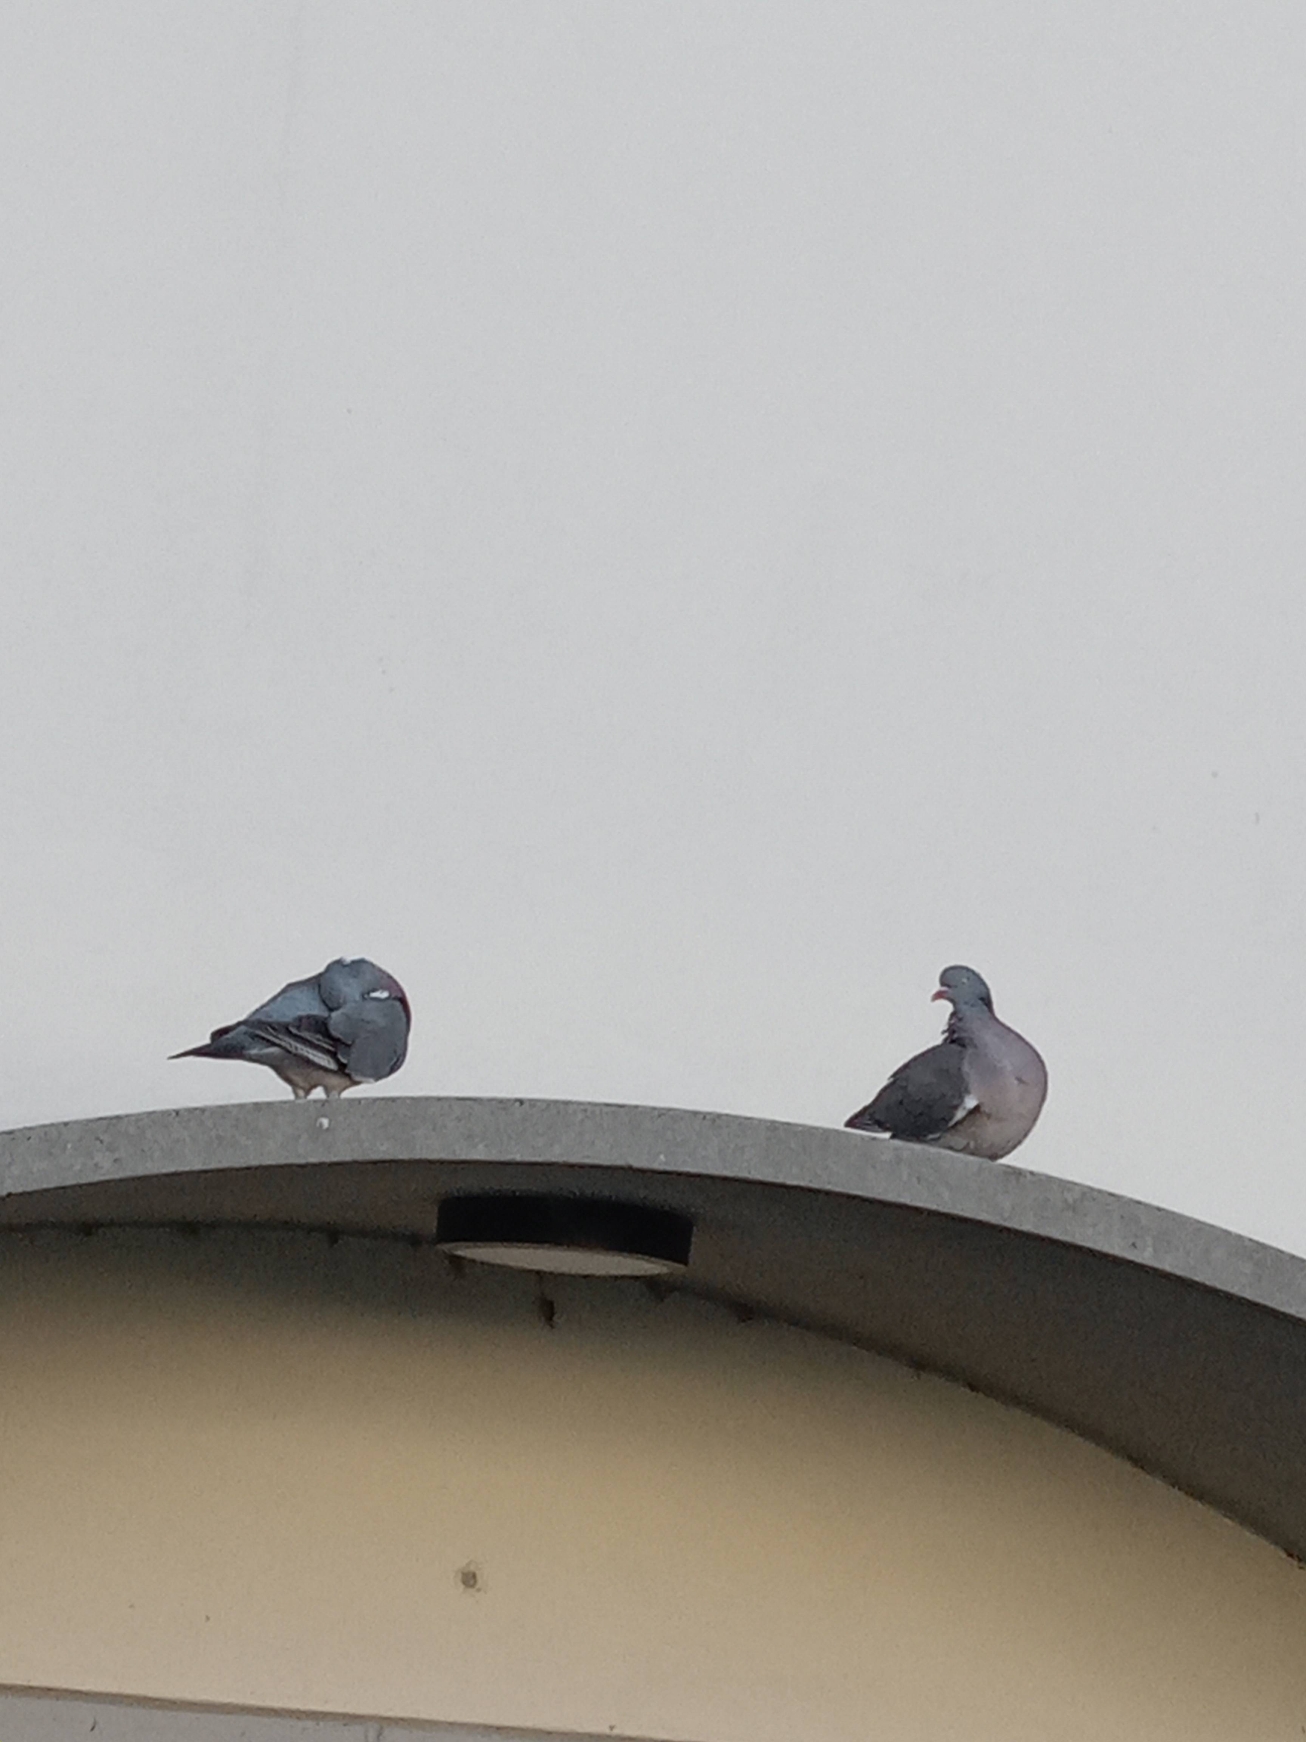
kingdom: Animalia
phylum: Chordata
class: Aves
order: Columbiformes
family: Columbidae
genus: Columba
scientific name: Columba palumbus
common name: Ringdue
